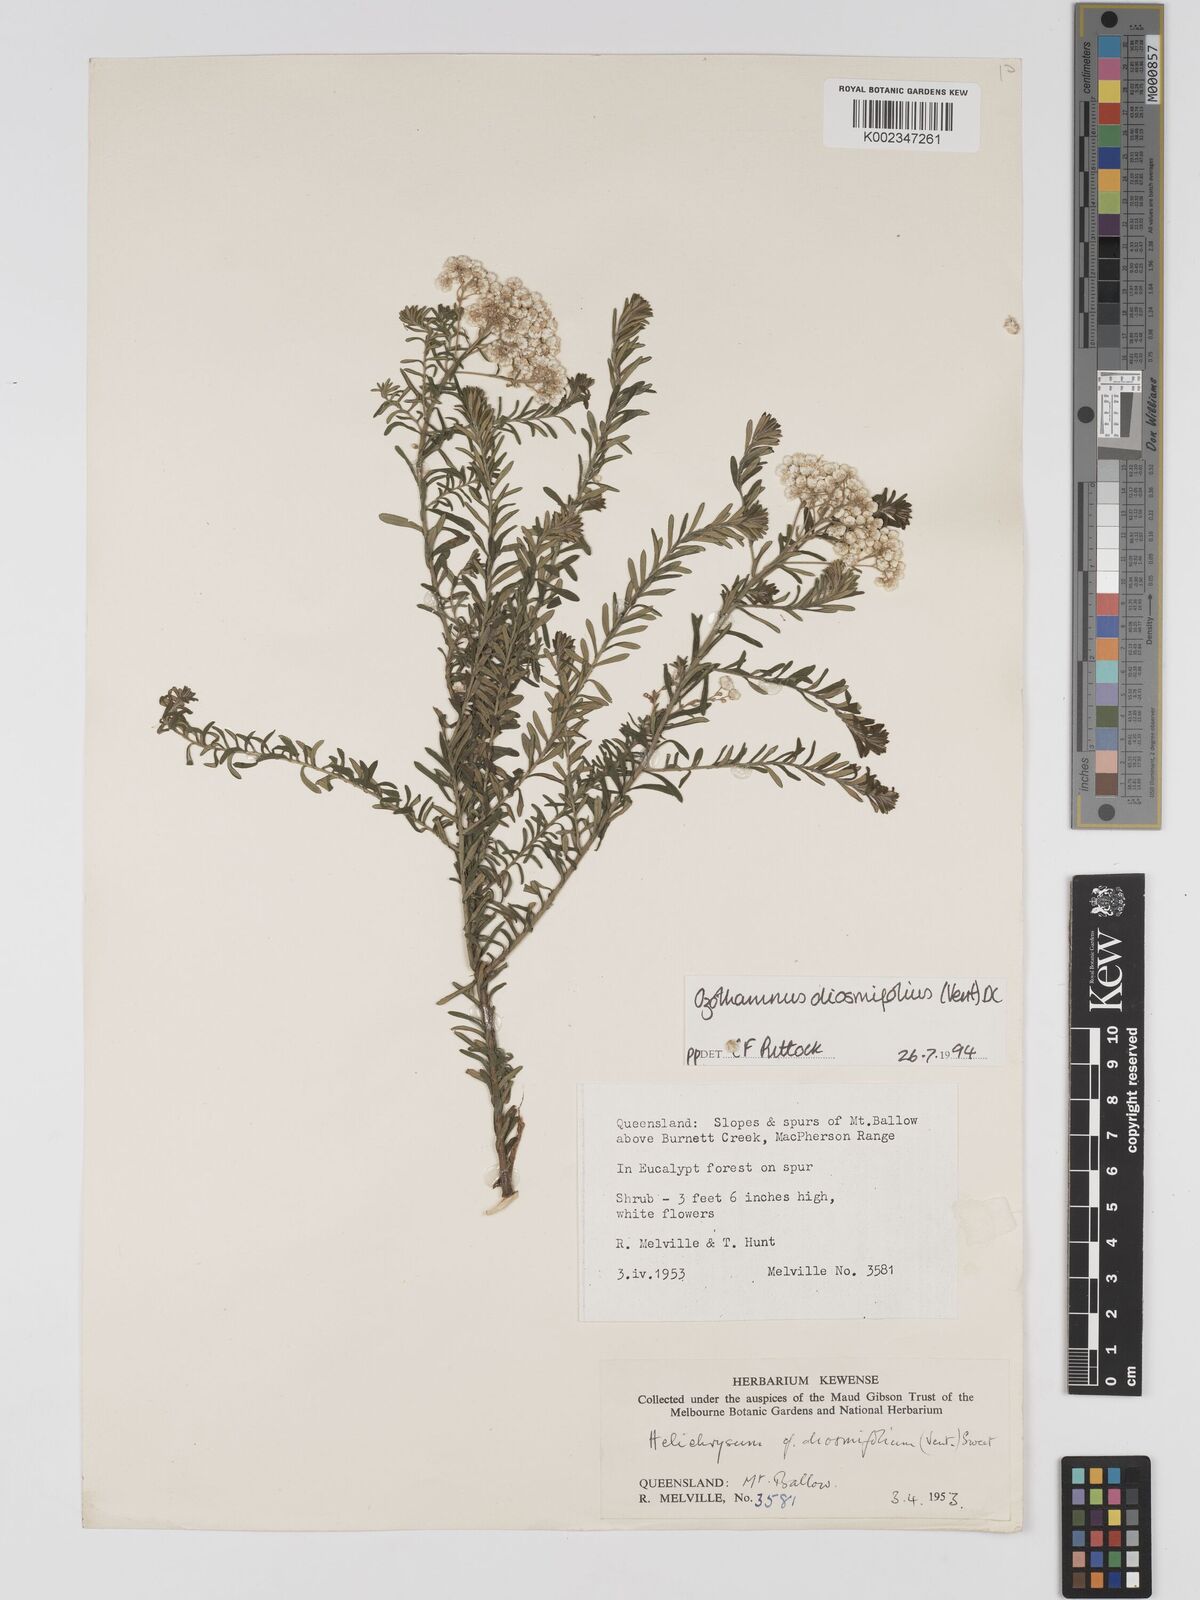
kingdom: Plantae
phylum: Tracheophyta
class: Magnoliopsida
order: Asterales
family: Asteraceae
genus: Ozothamnus
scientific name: Ozothamnus diosmifolius
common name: White-dogwood
